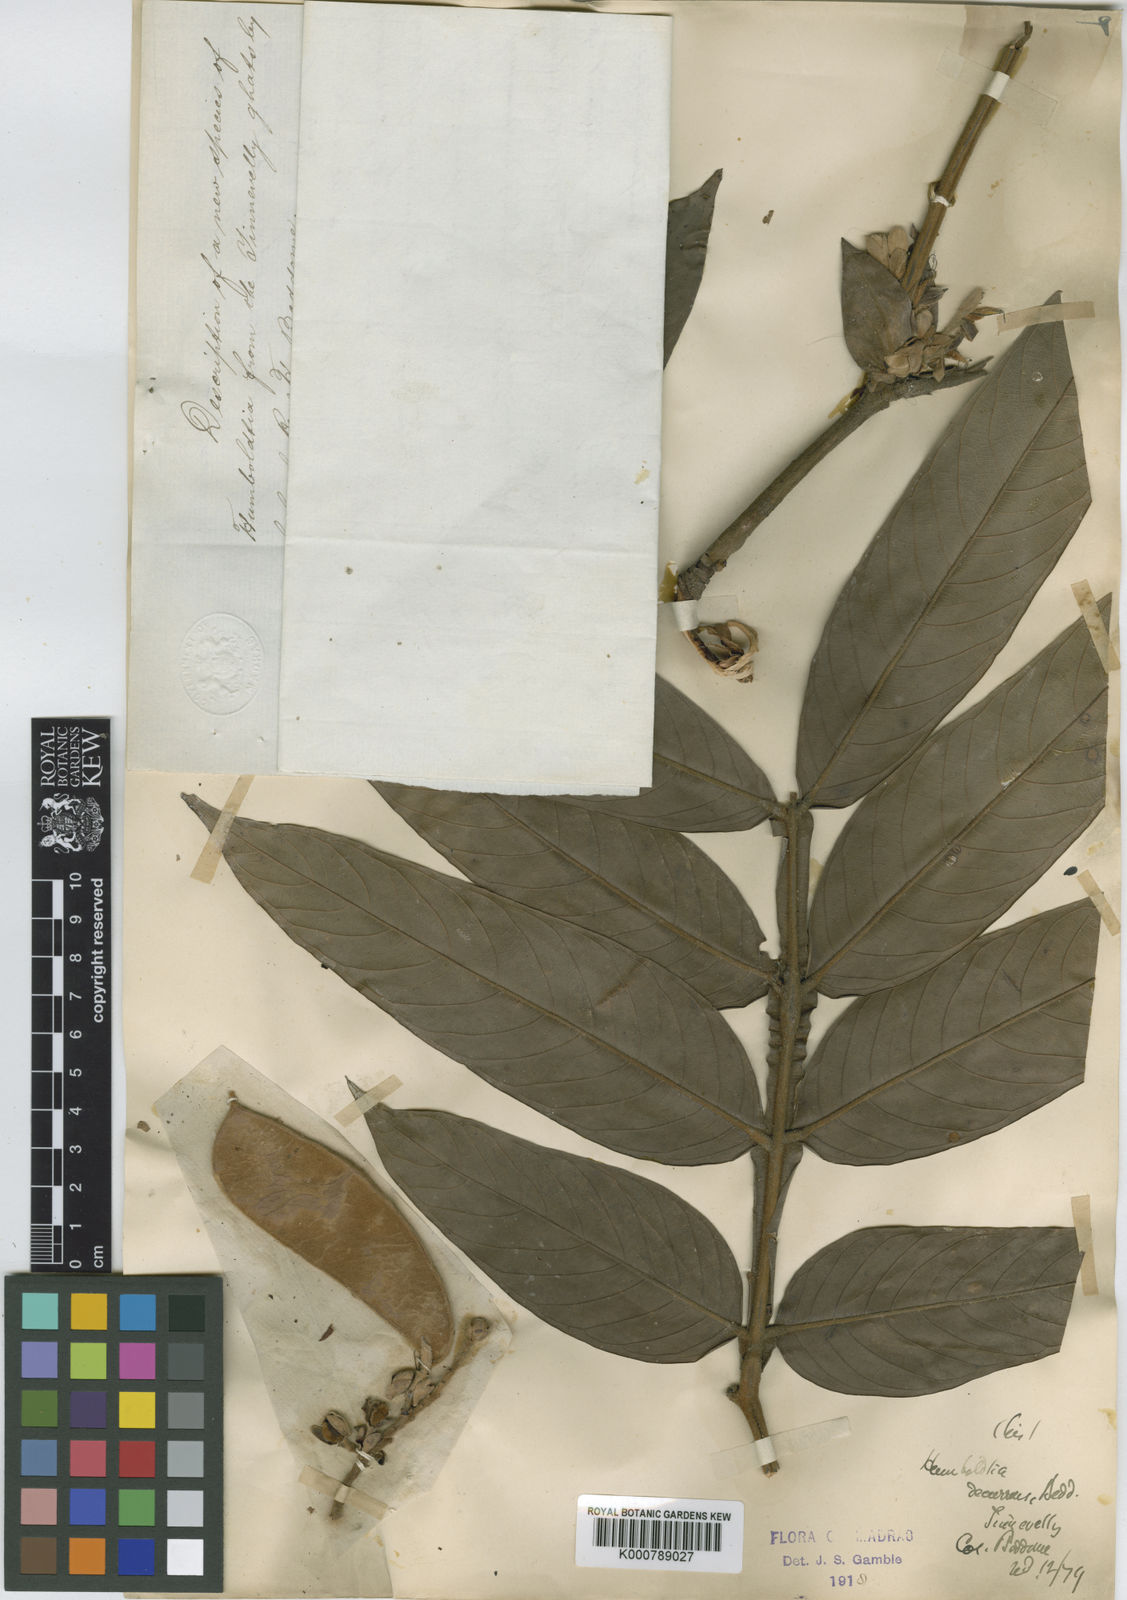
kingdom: Plantae
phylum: Tracheophyta
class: Magnoliopsida
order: Fabales
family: Fabaceae
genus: Humboldtia
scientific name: Humboldtia decurrens
